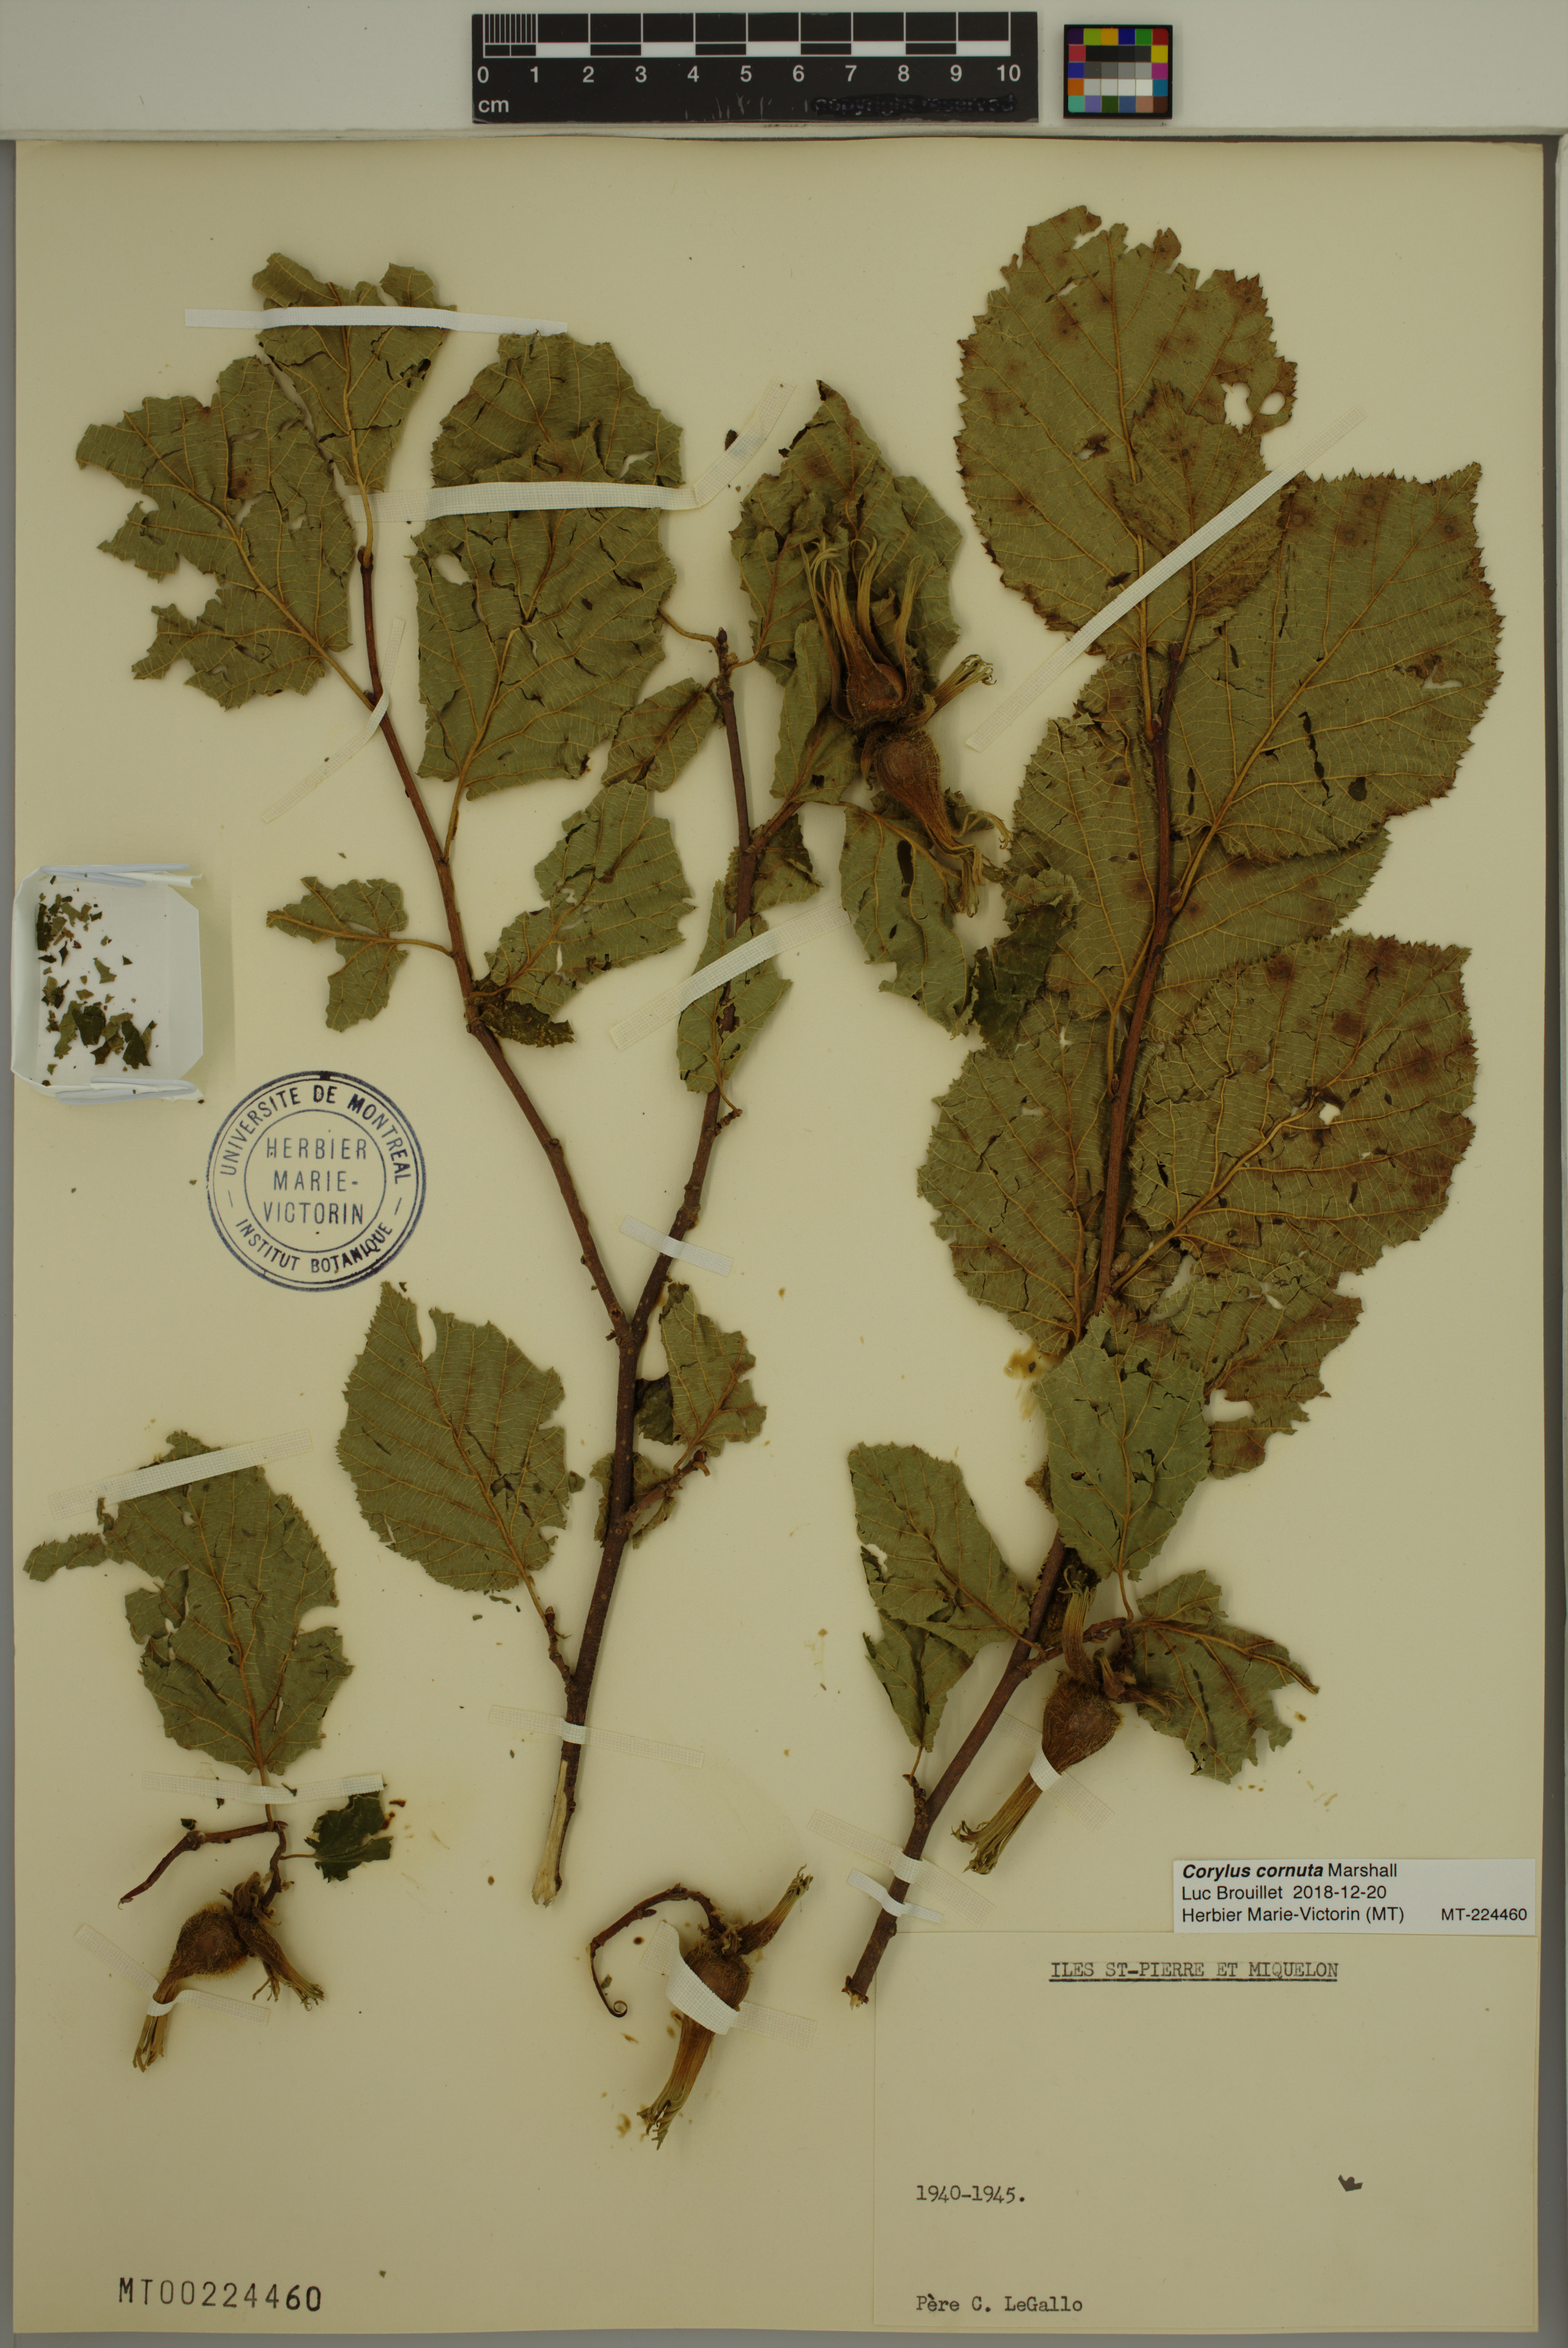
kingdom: Plantae
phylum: Tracheophyta
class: Magnoliopsida
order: Fagales
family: Betulaceae
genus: Corylus
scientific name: Corylus cornuta
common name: Beaked hazel
